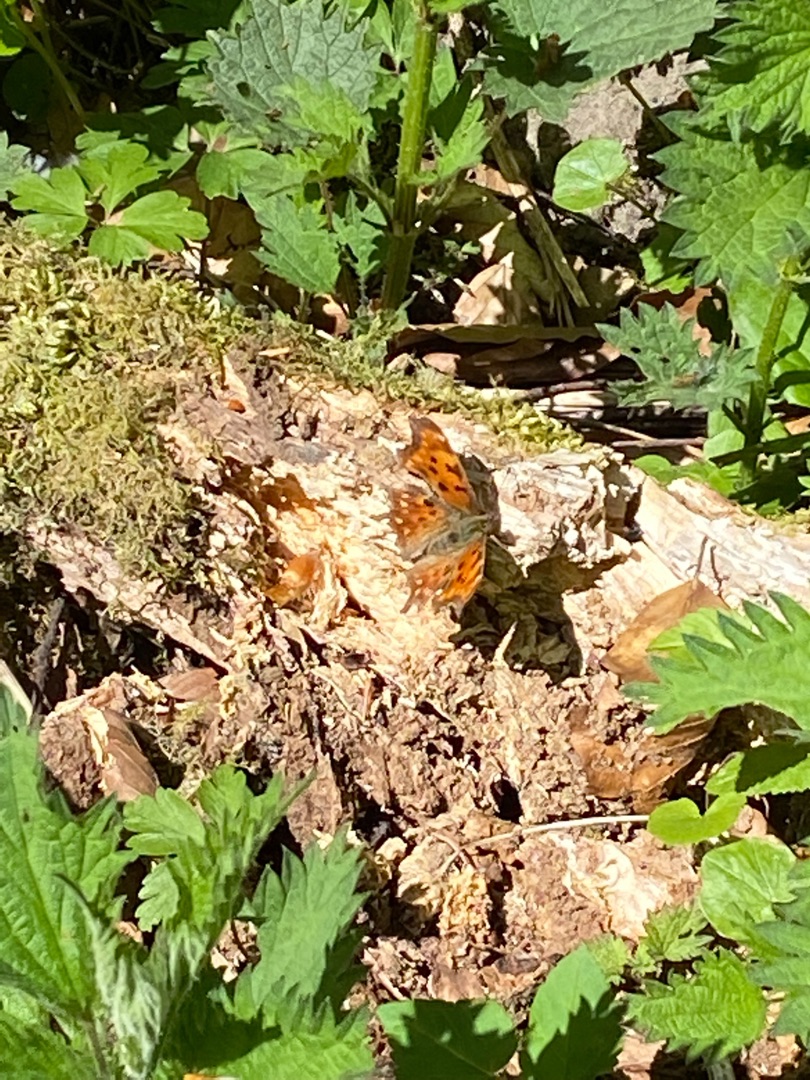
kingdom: Animalia
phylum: Arthropoda
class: Insecta
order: Lepidoptera
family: Nymphalidae
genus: Polygonia
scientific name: Polygonia c-album
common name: Det hvide C
